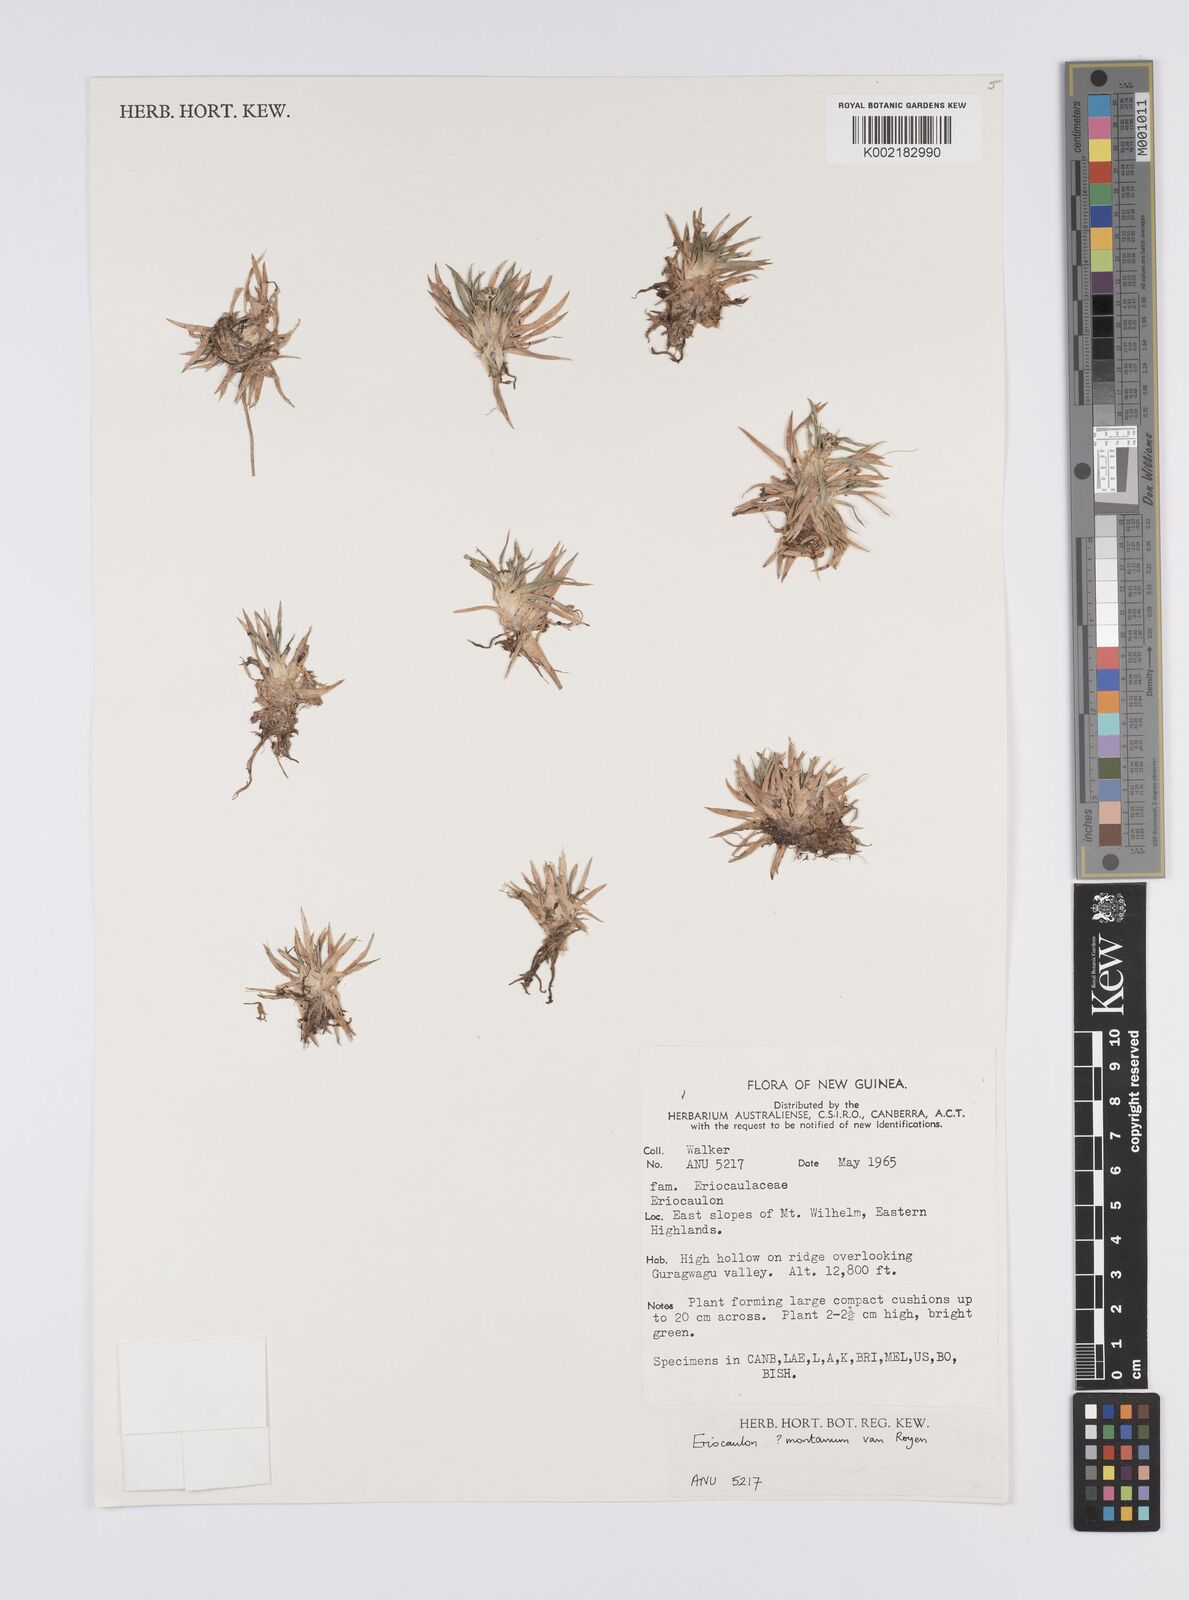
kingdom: Plantae
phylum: Tracheophyta
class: Liliopsida
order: Poales
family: Eriocaulaceae
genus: Eriocaulon
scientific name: Eriocaulon montanum
